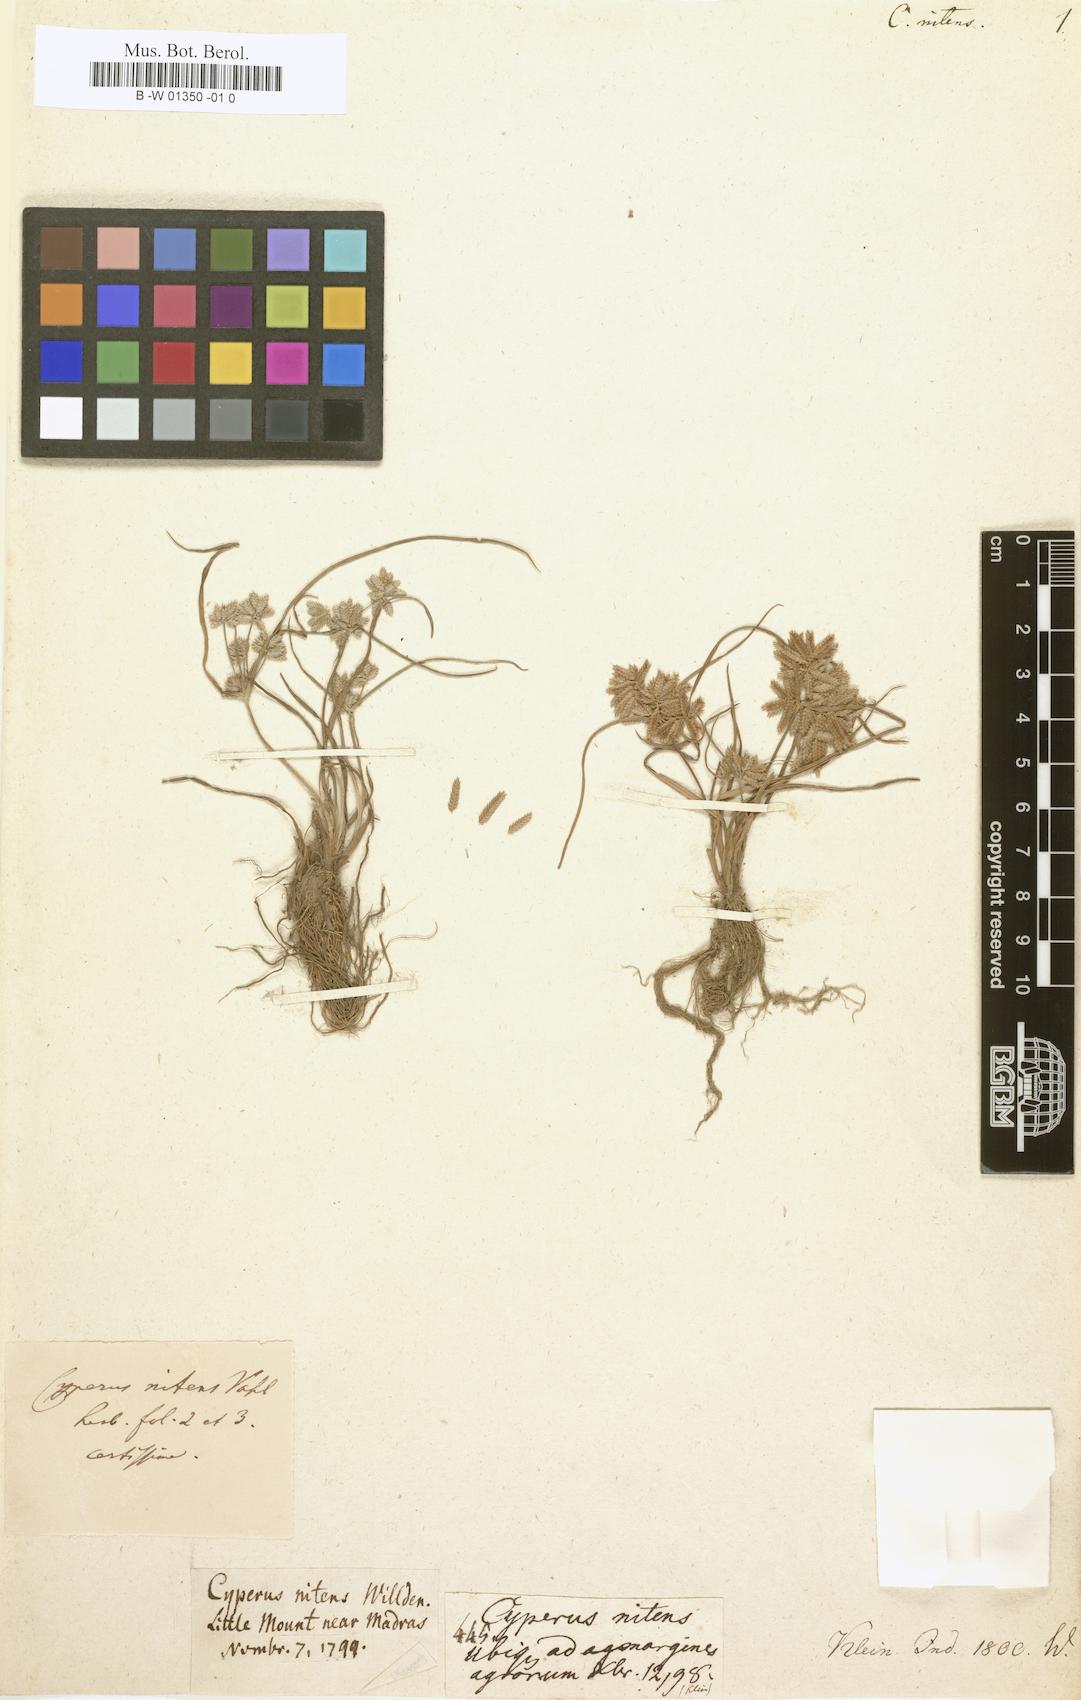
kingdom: Plantae
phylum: Tracheophyta
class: Liliopsida
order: Poales
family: Cyperaceae
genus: Cyperus
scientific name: Cyperus nitens
